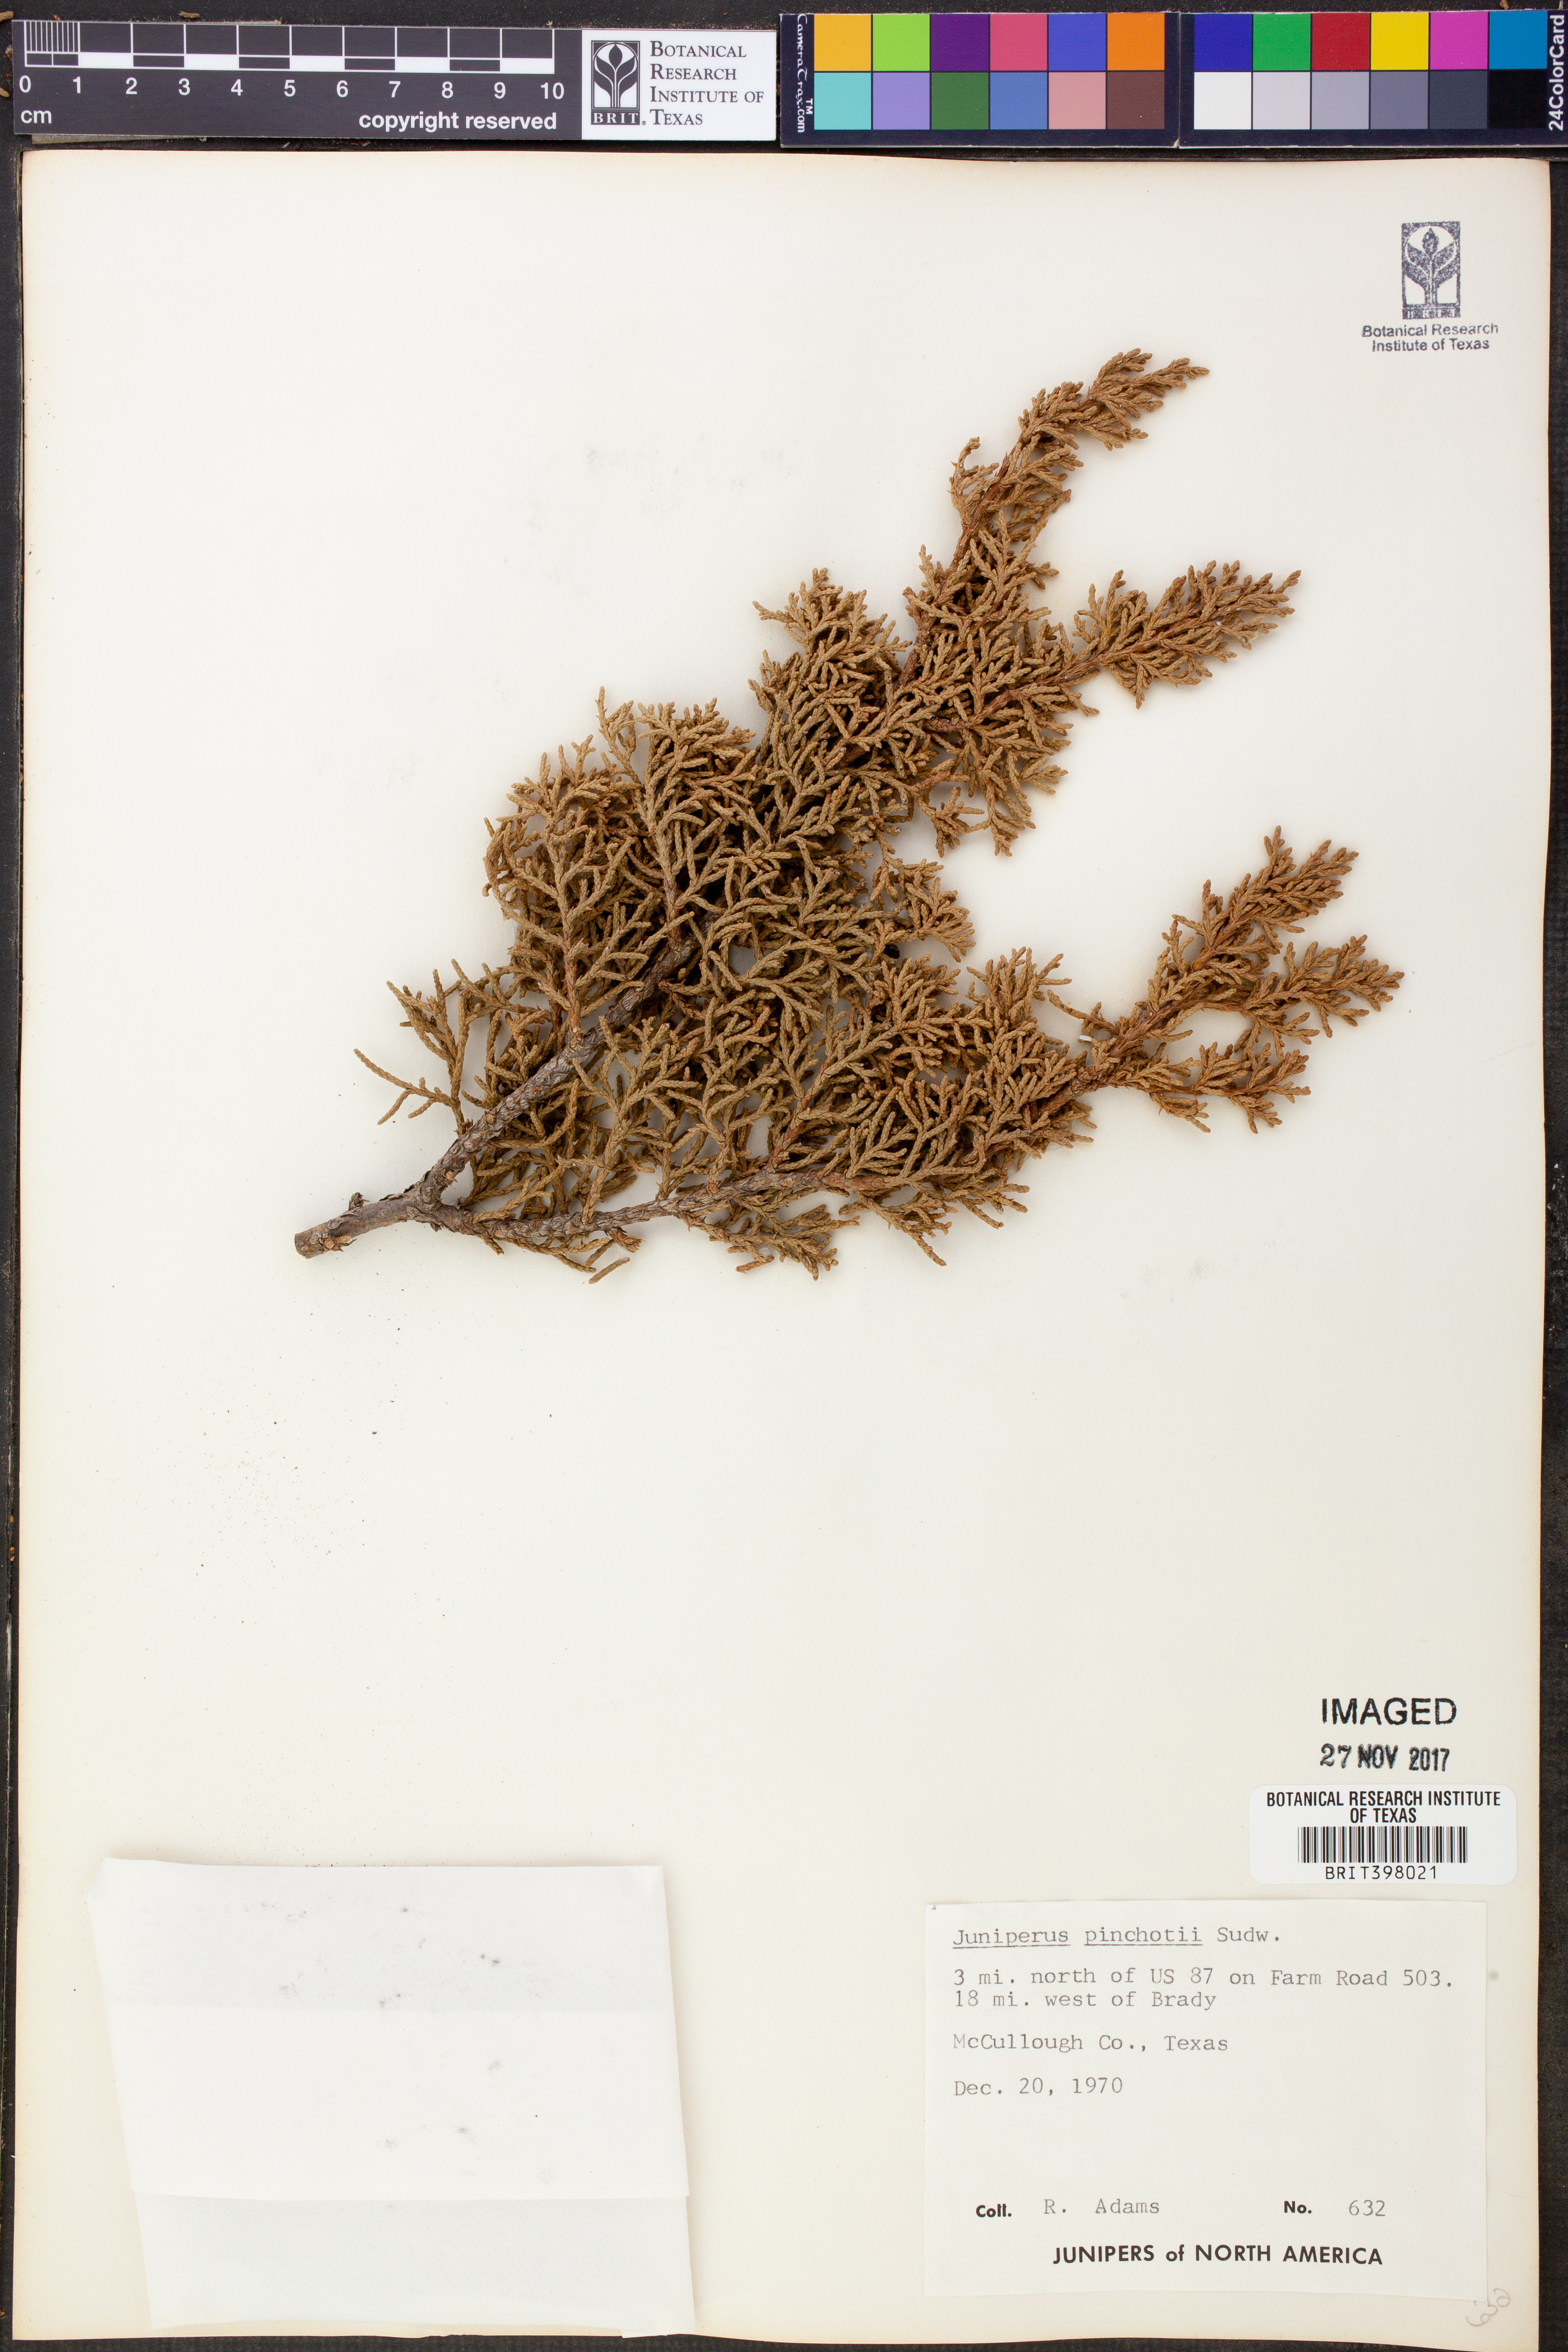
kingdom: Plantae
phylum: Tracheophyta
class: Pinopsida
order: Pinales
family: Cupressaceae
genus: Juniperus
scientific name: Juniperus pinchotii
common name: Pinchot juniper
